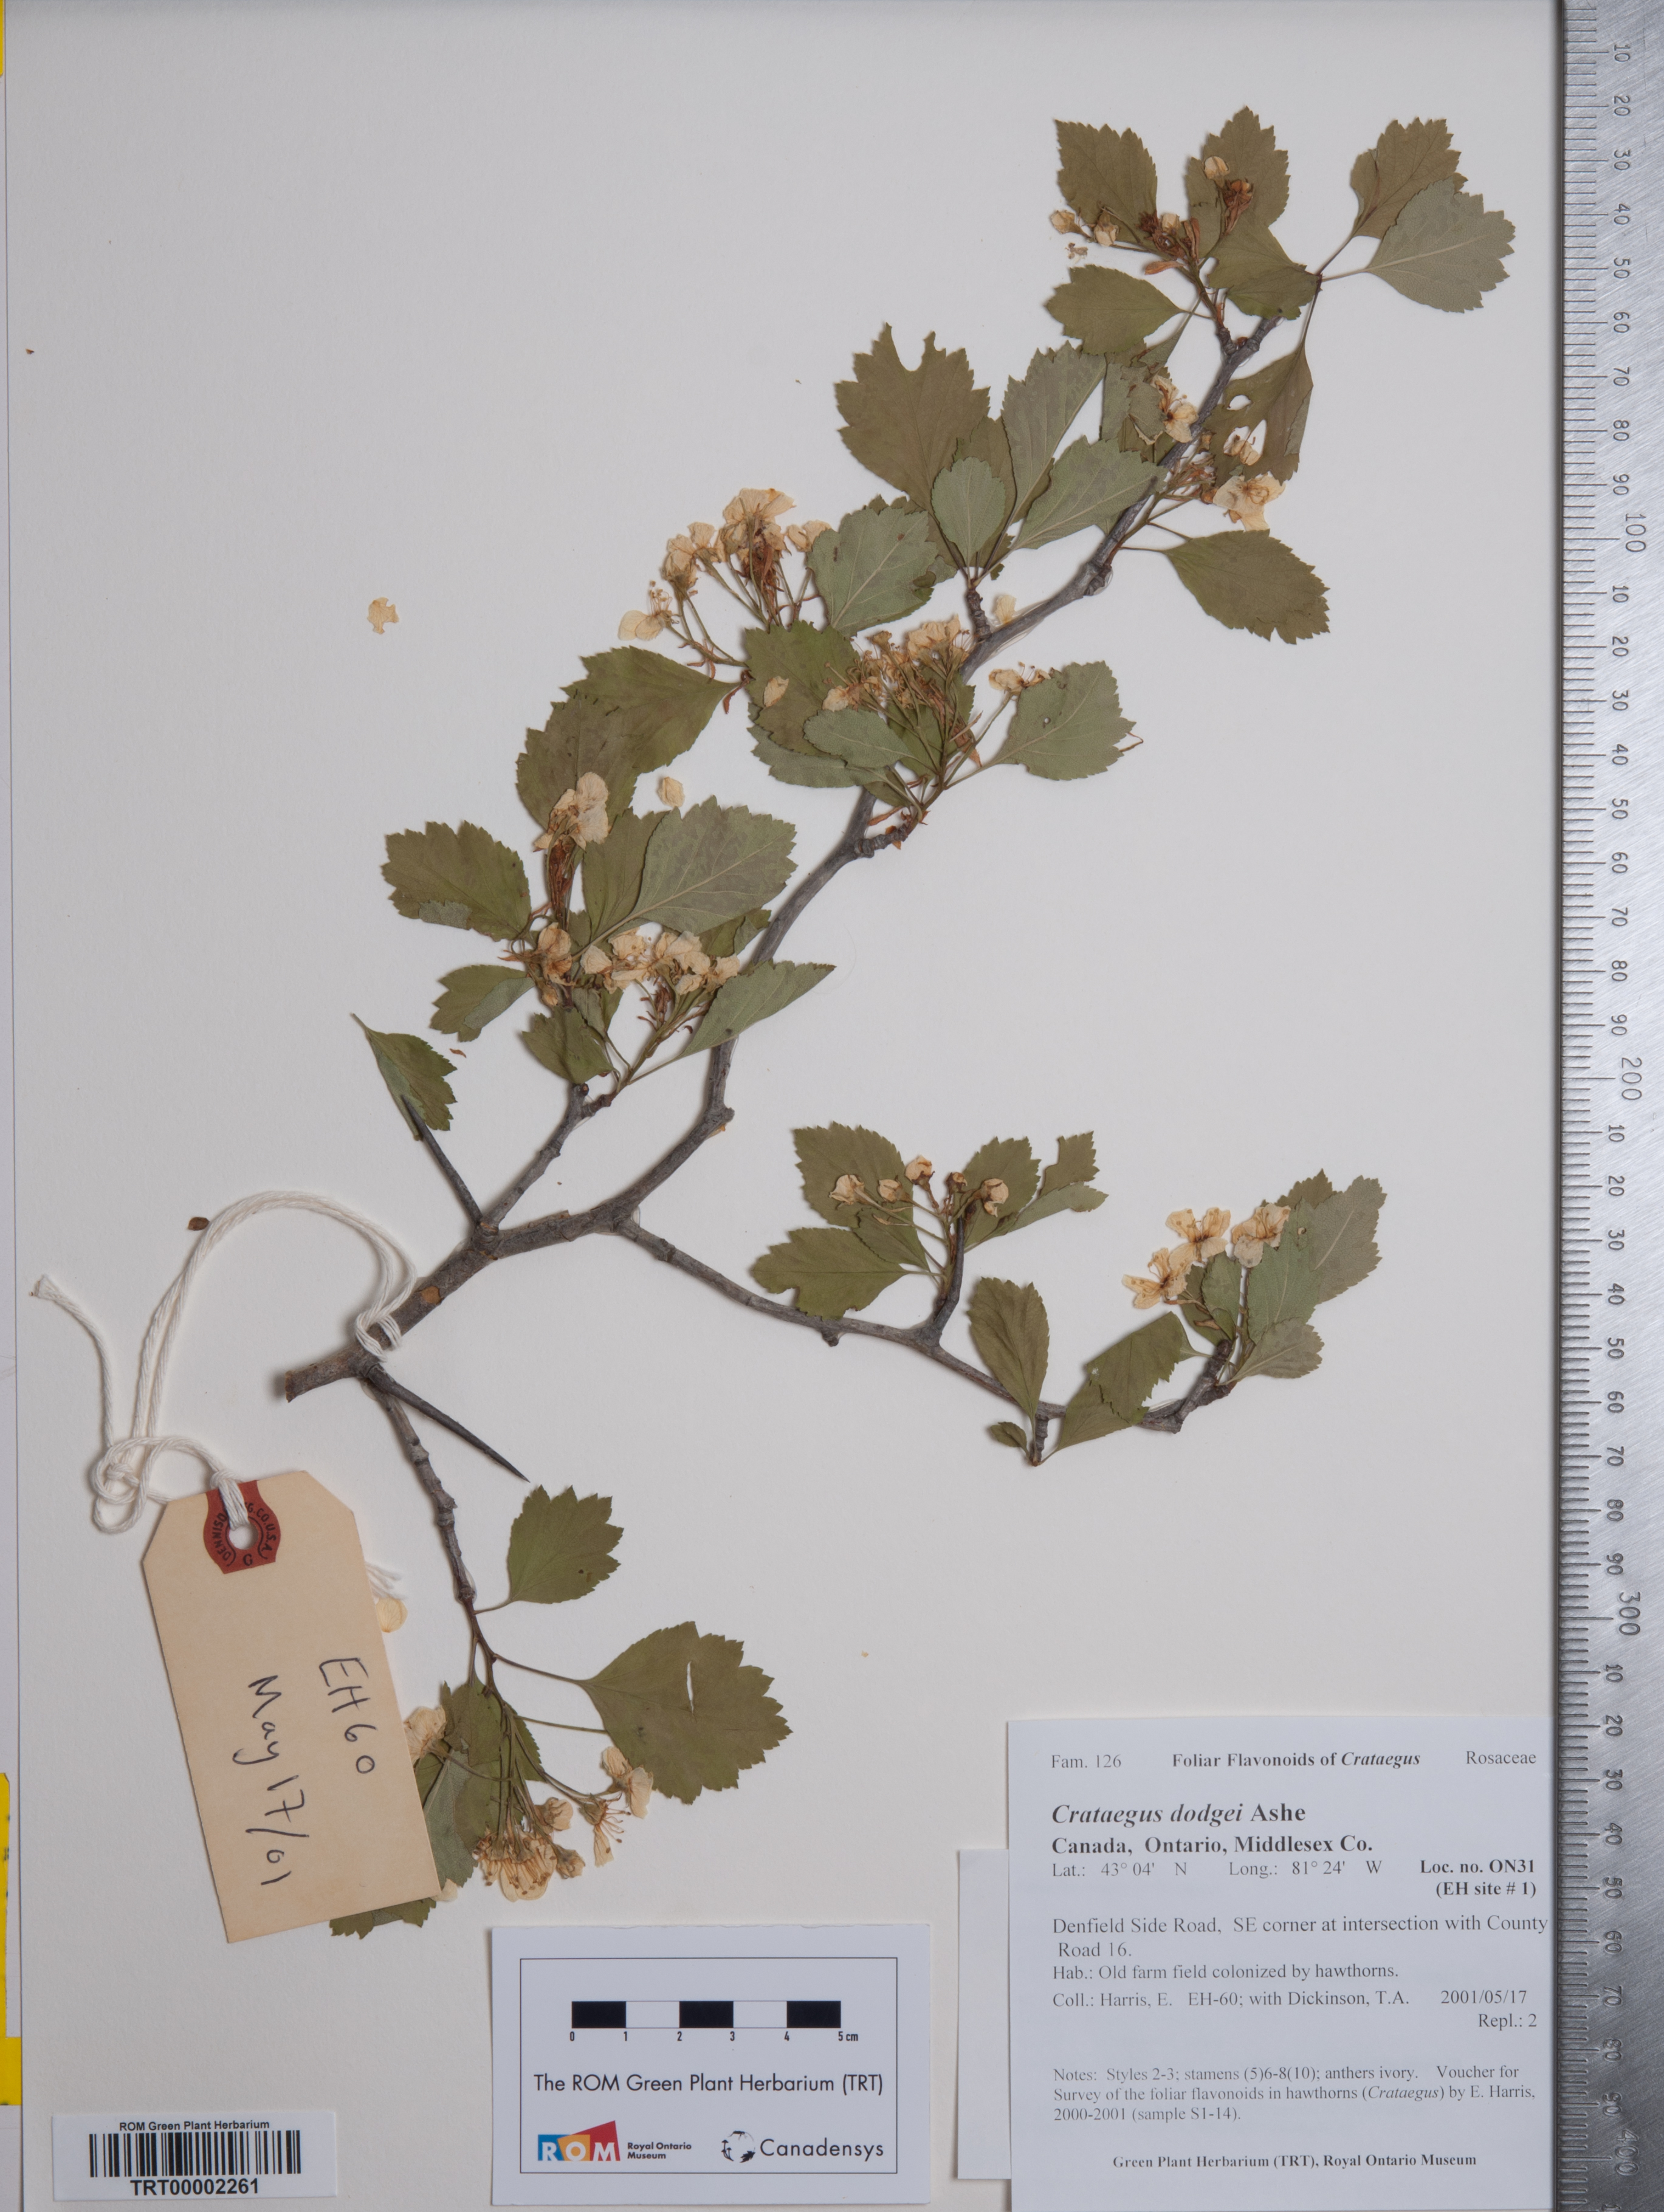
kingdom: Plantae
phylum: Tracheophyta
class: Magnoliopsida
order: Rosales
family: Rosaceae
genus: Crataegus
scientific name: Crataegus dodgei
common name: Dodge's hawthorn
